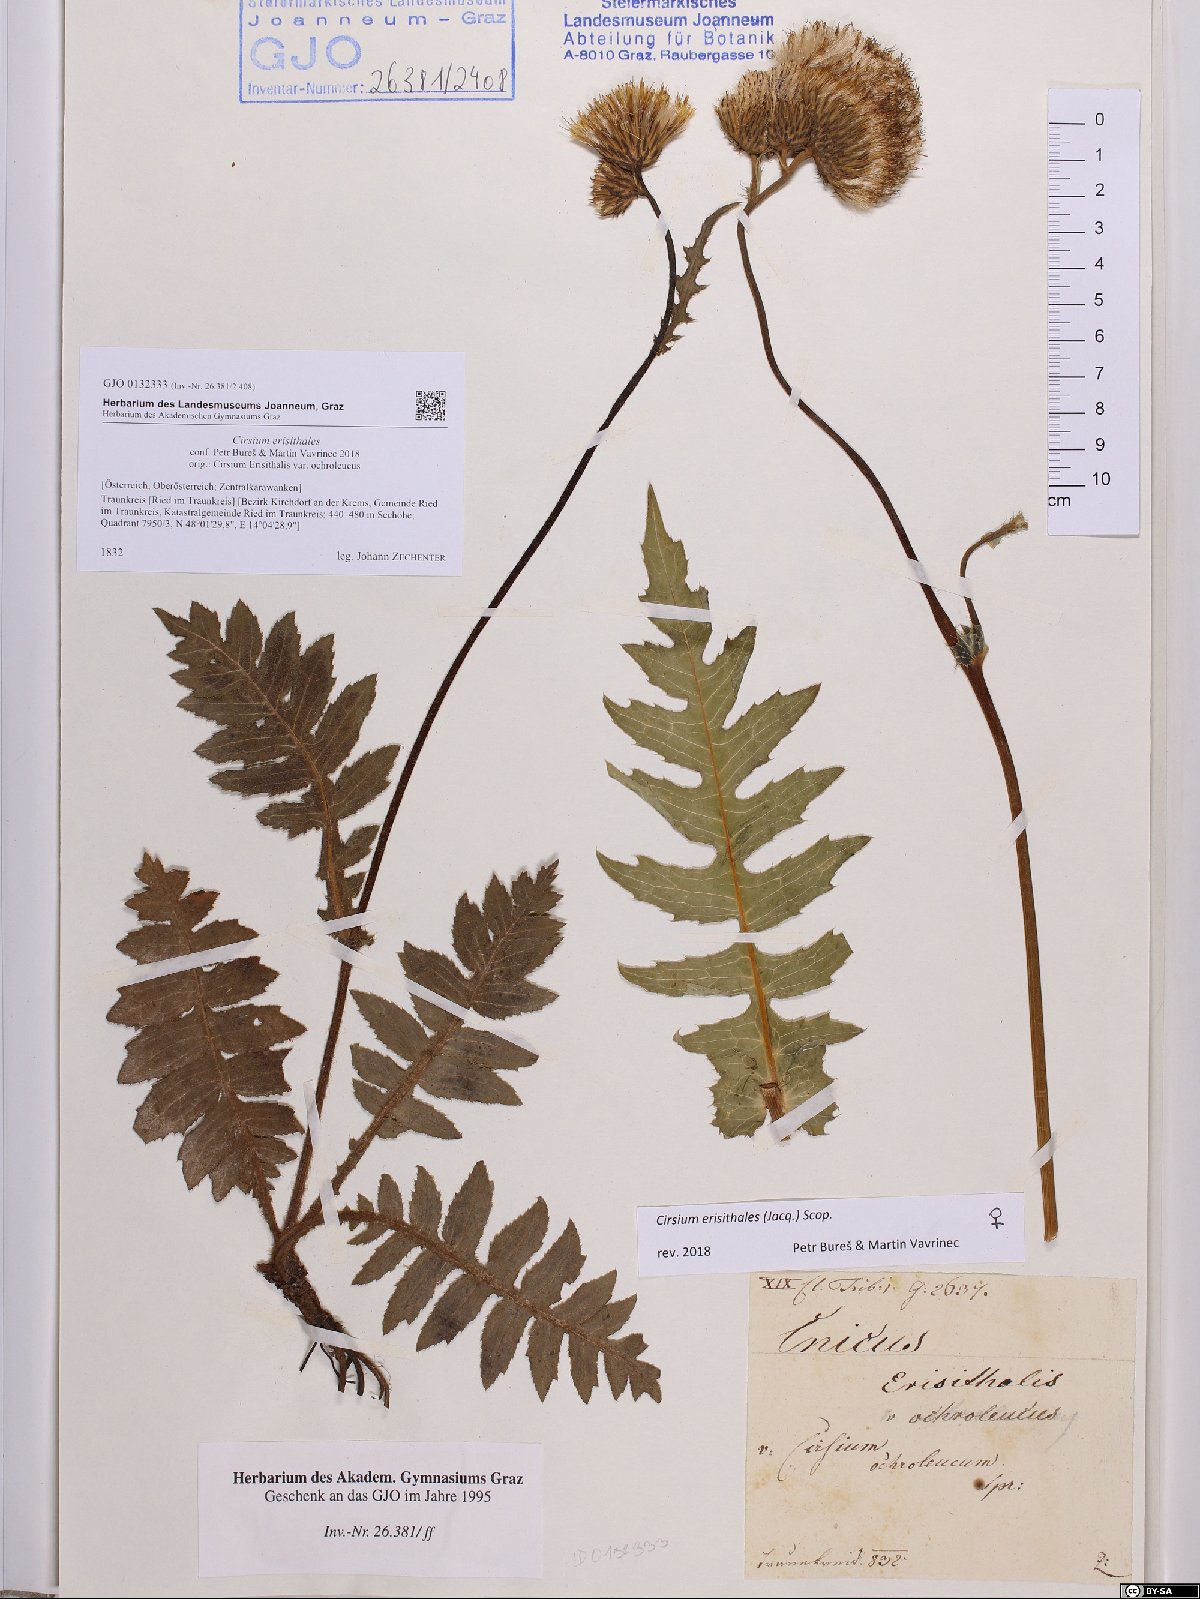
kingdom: Plantae
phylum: Tracheophyta
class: Magnoliopsida
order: Asterales
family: Asteraceae
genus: Cirsium
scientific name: Cirsium erisithales
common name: Yellow thistle
